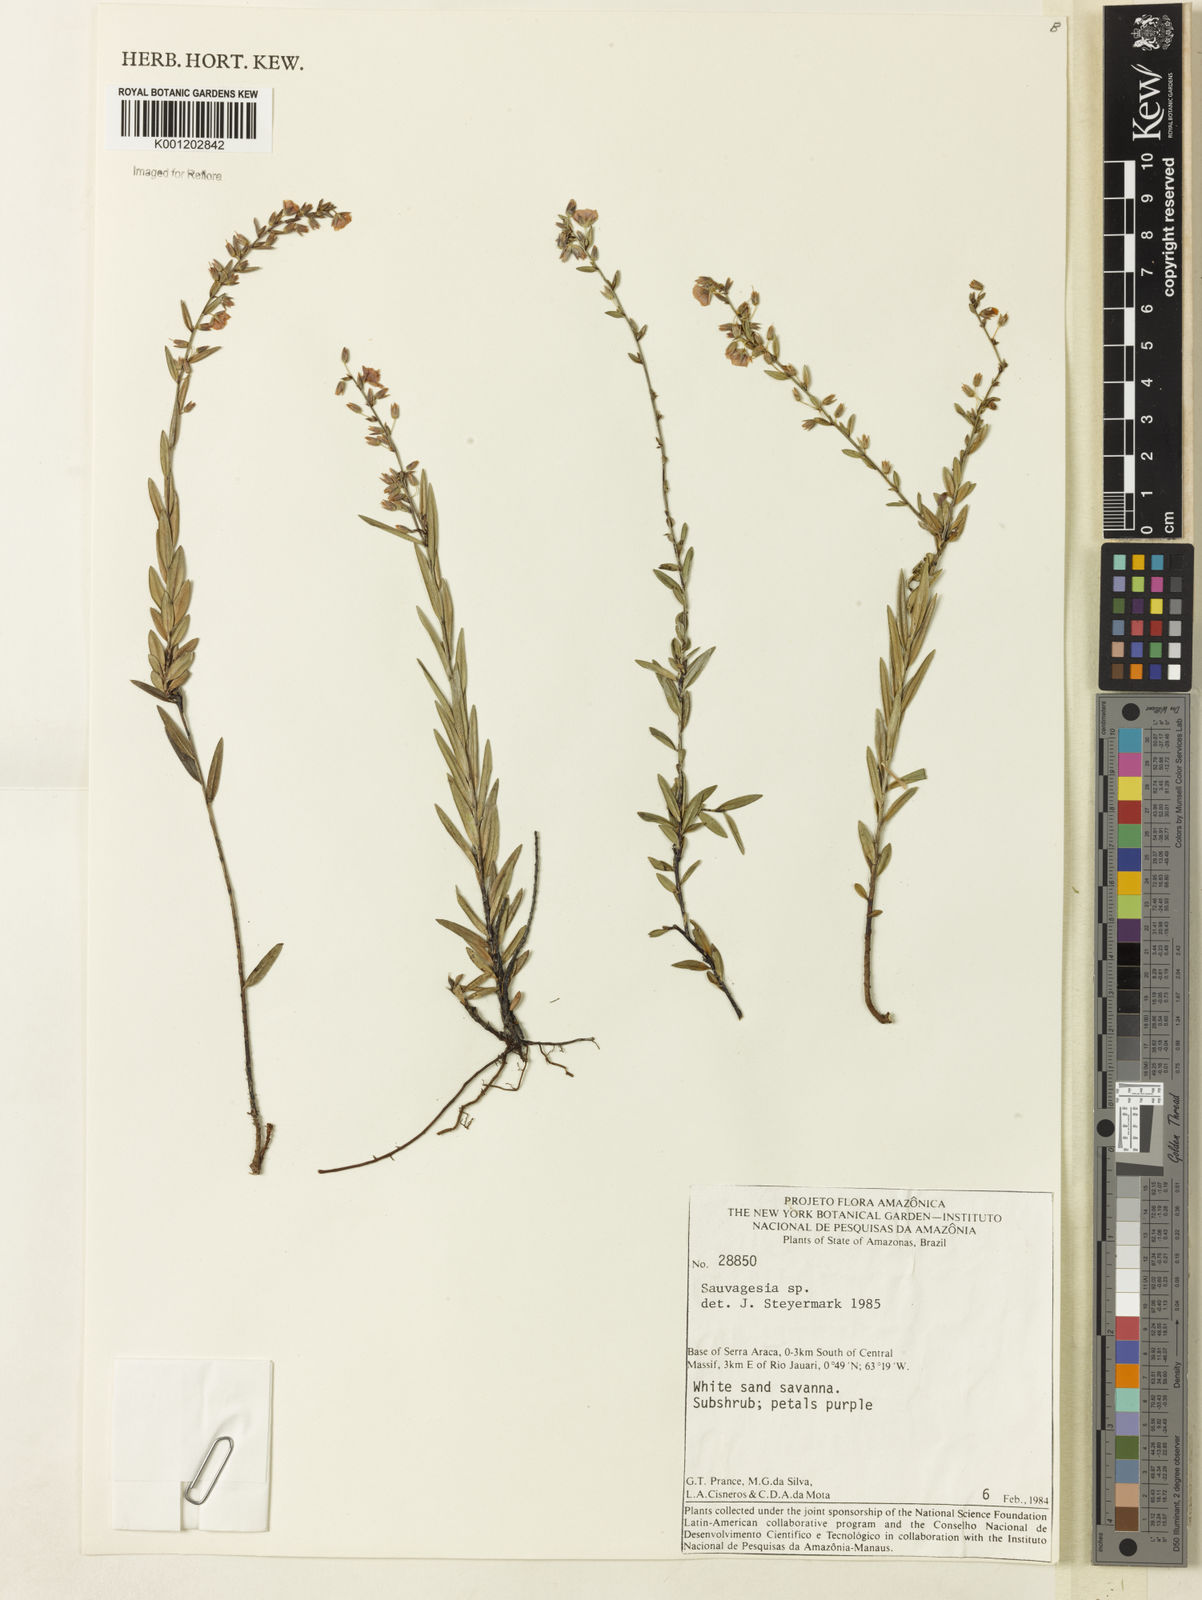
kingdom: Plantae
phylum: Tracheophyta
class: Magnoliopsida
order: Malpighiales
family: Ochnaceae
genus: Sauvagesia
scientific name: Sauvagesia ramosa
